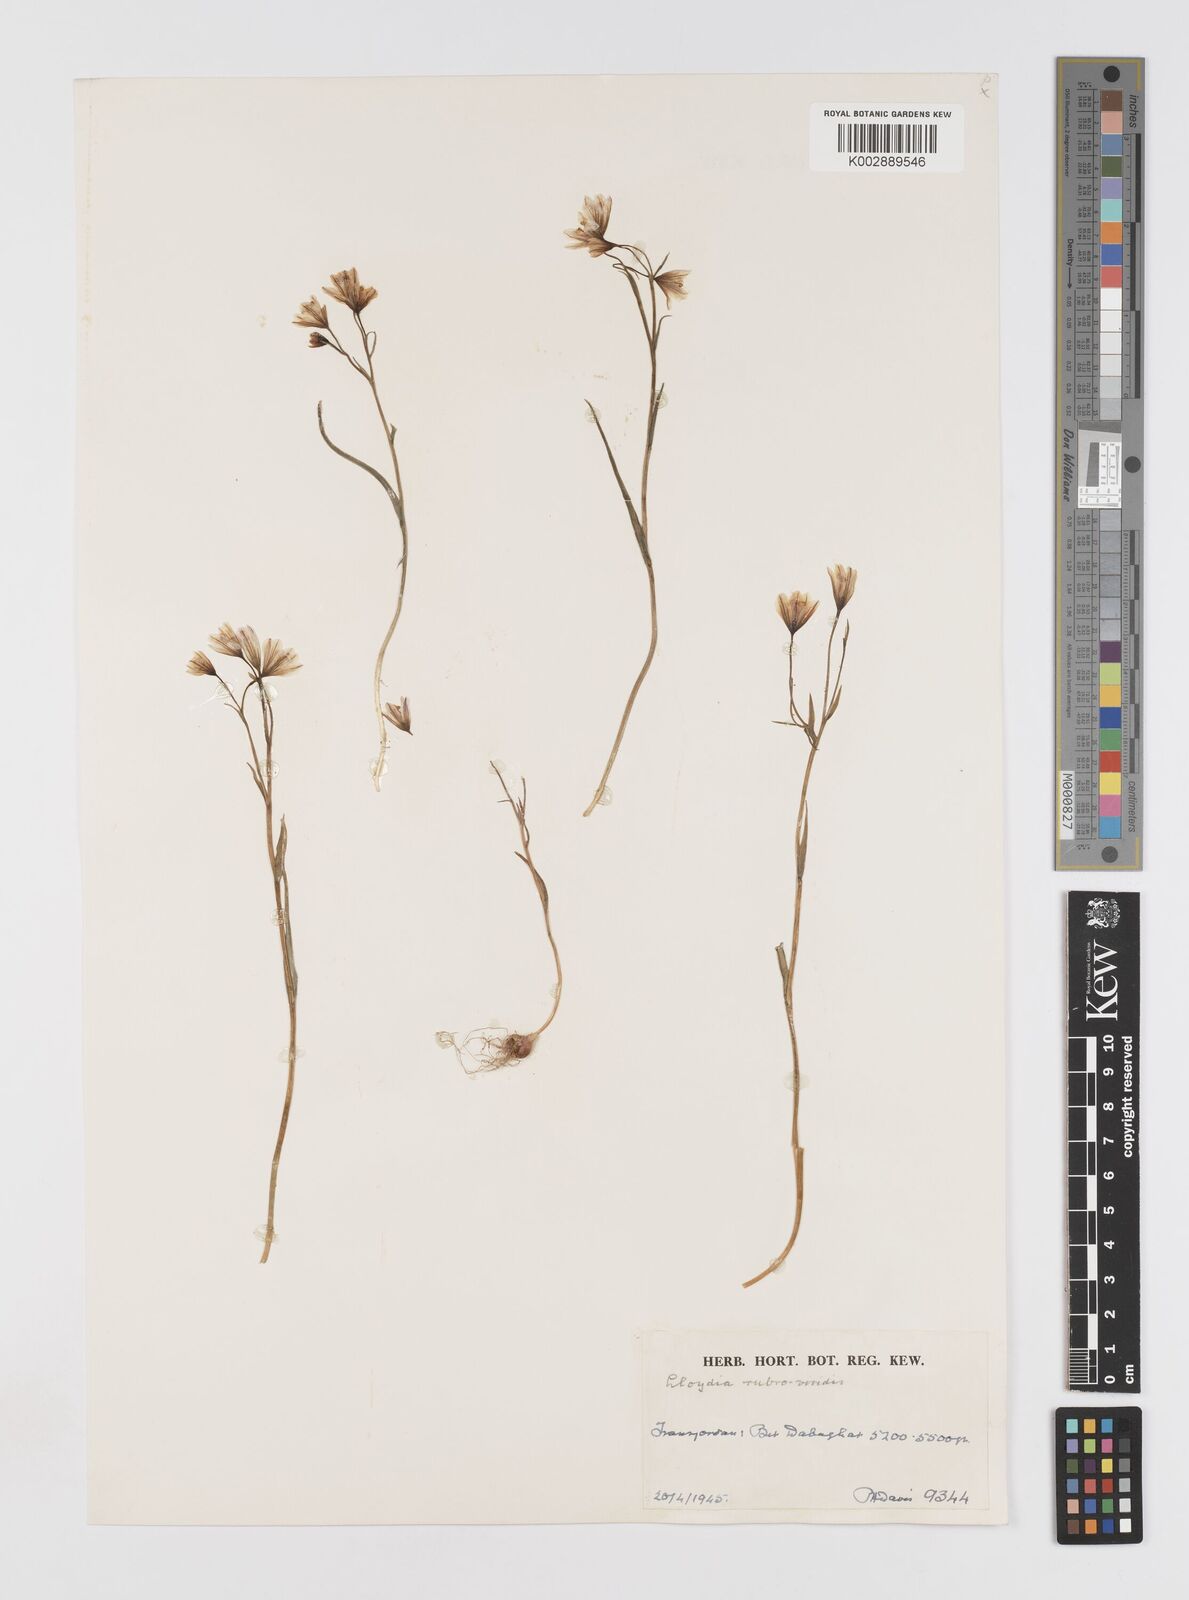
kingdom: Plantae
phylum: Tracheophyta
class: Liliopsida
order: Liliales
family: Liliaceae
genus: Gagea
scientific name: Gagea libanotica
